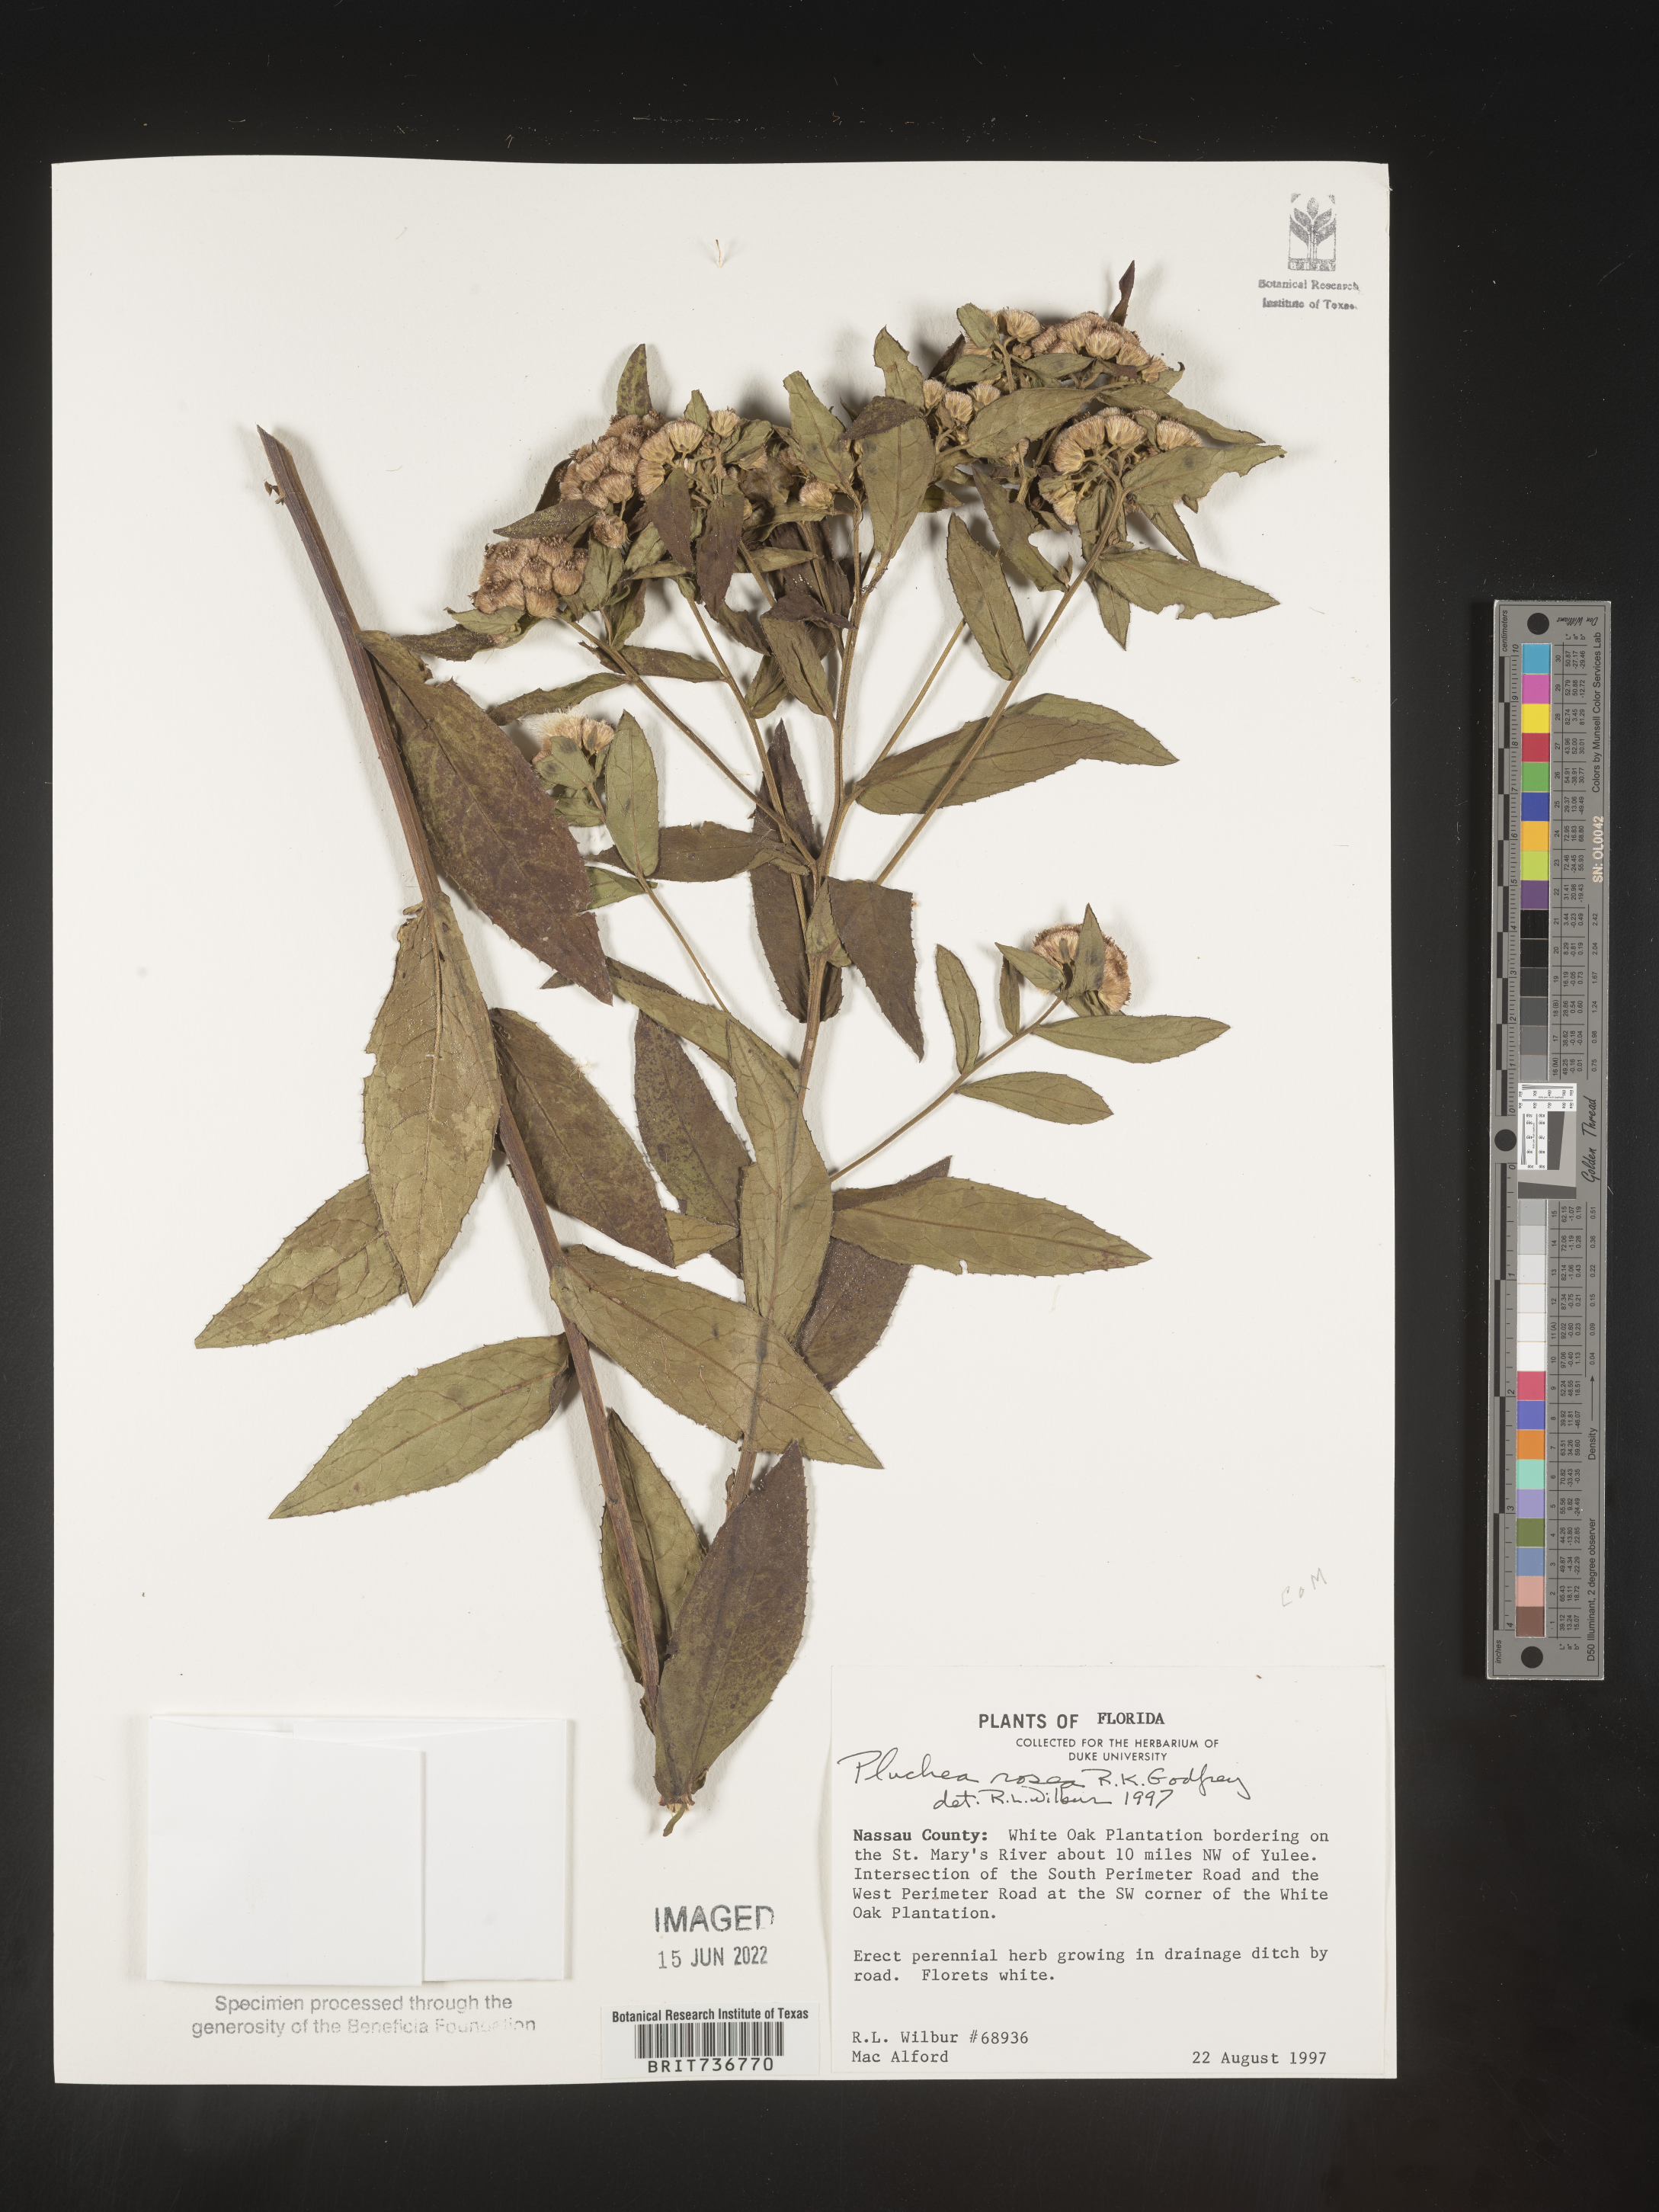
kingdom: Plantae
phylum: Tracheophyta
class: Magnoliopsida
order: Asterales
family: Asteraceae
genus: Pluchea
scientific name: Pluchea baccharis
